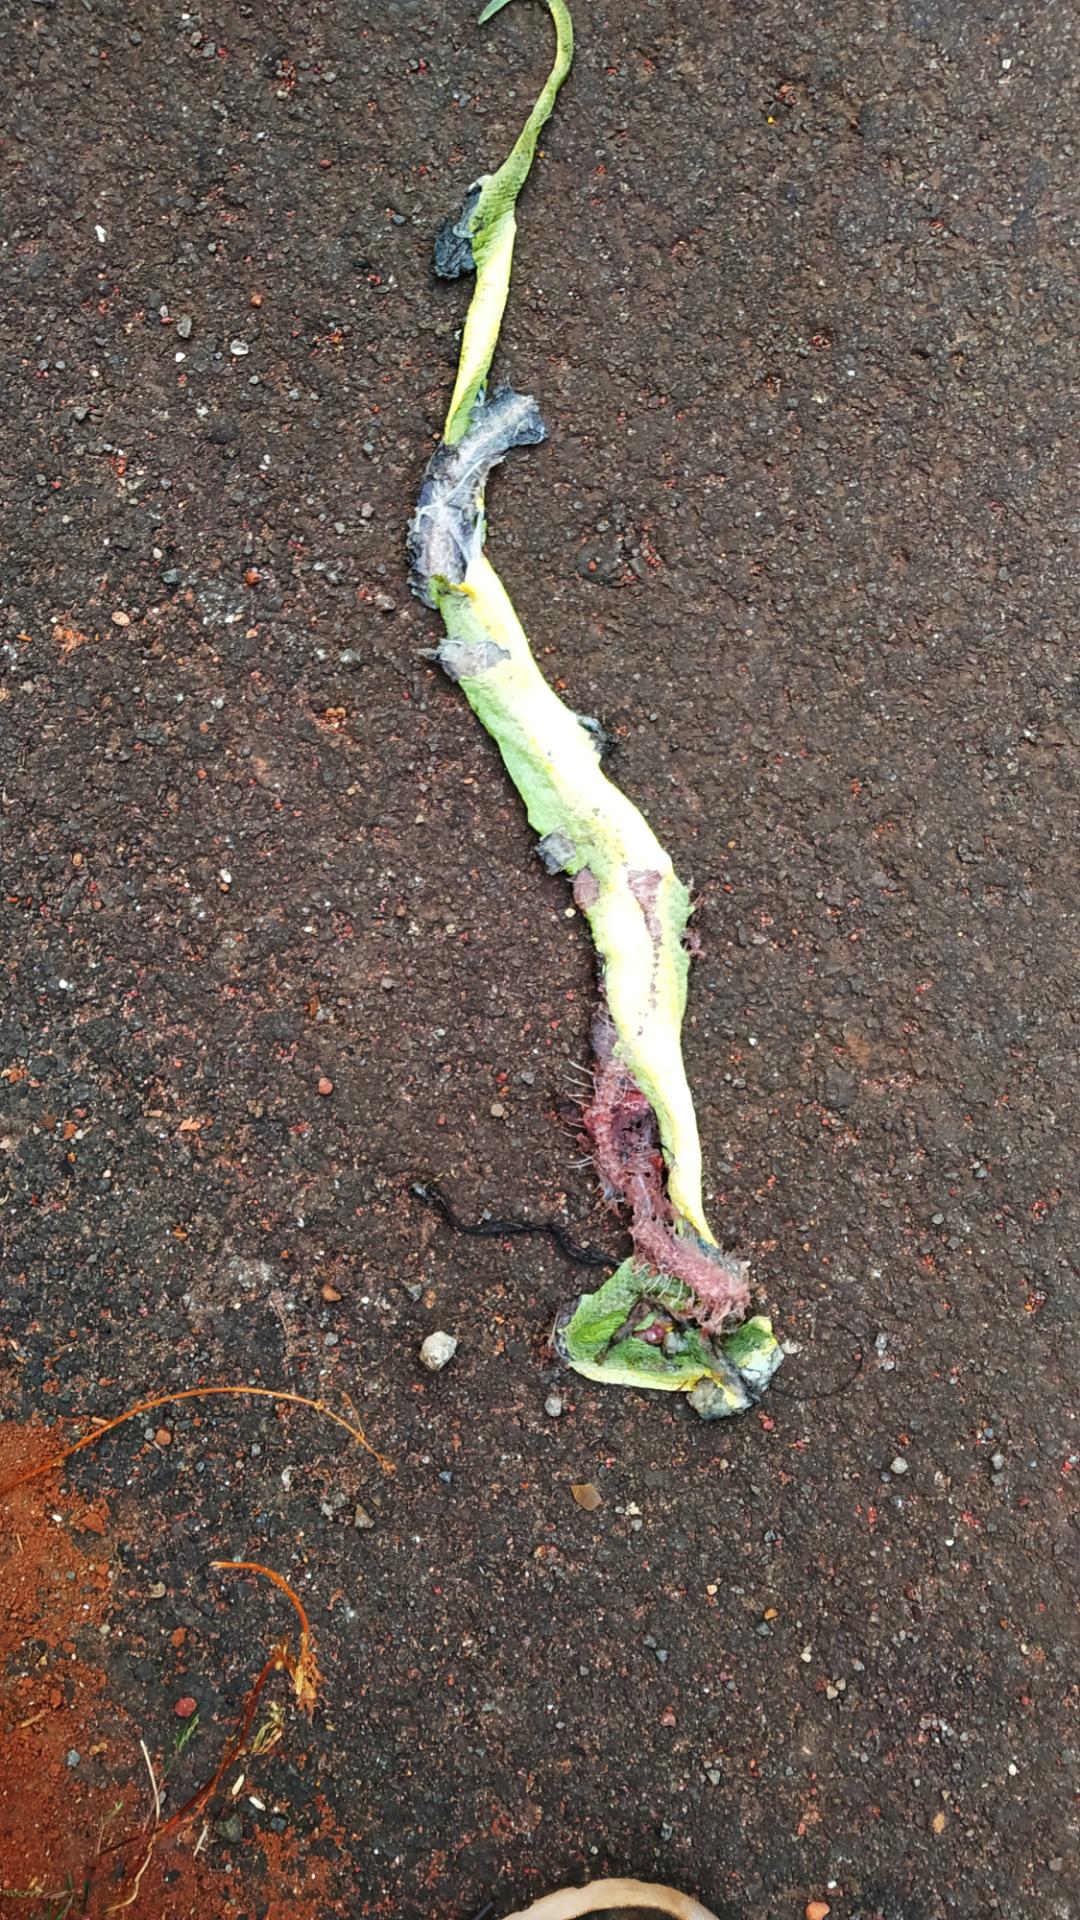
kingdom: Animalia
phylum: Chordata
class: Squamata
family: Viperidae
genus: Craspedocephalus
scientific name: Craspedocephalus gramineus
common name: Common bamboo viper
